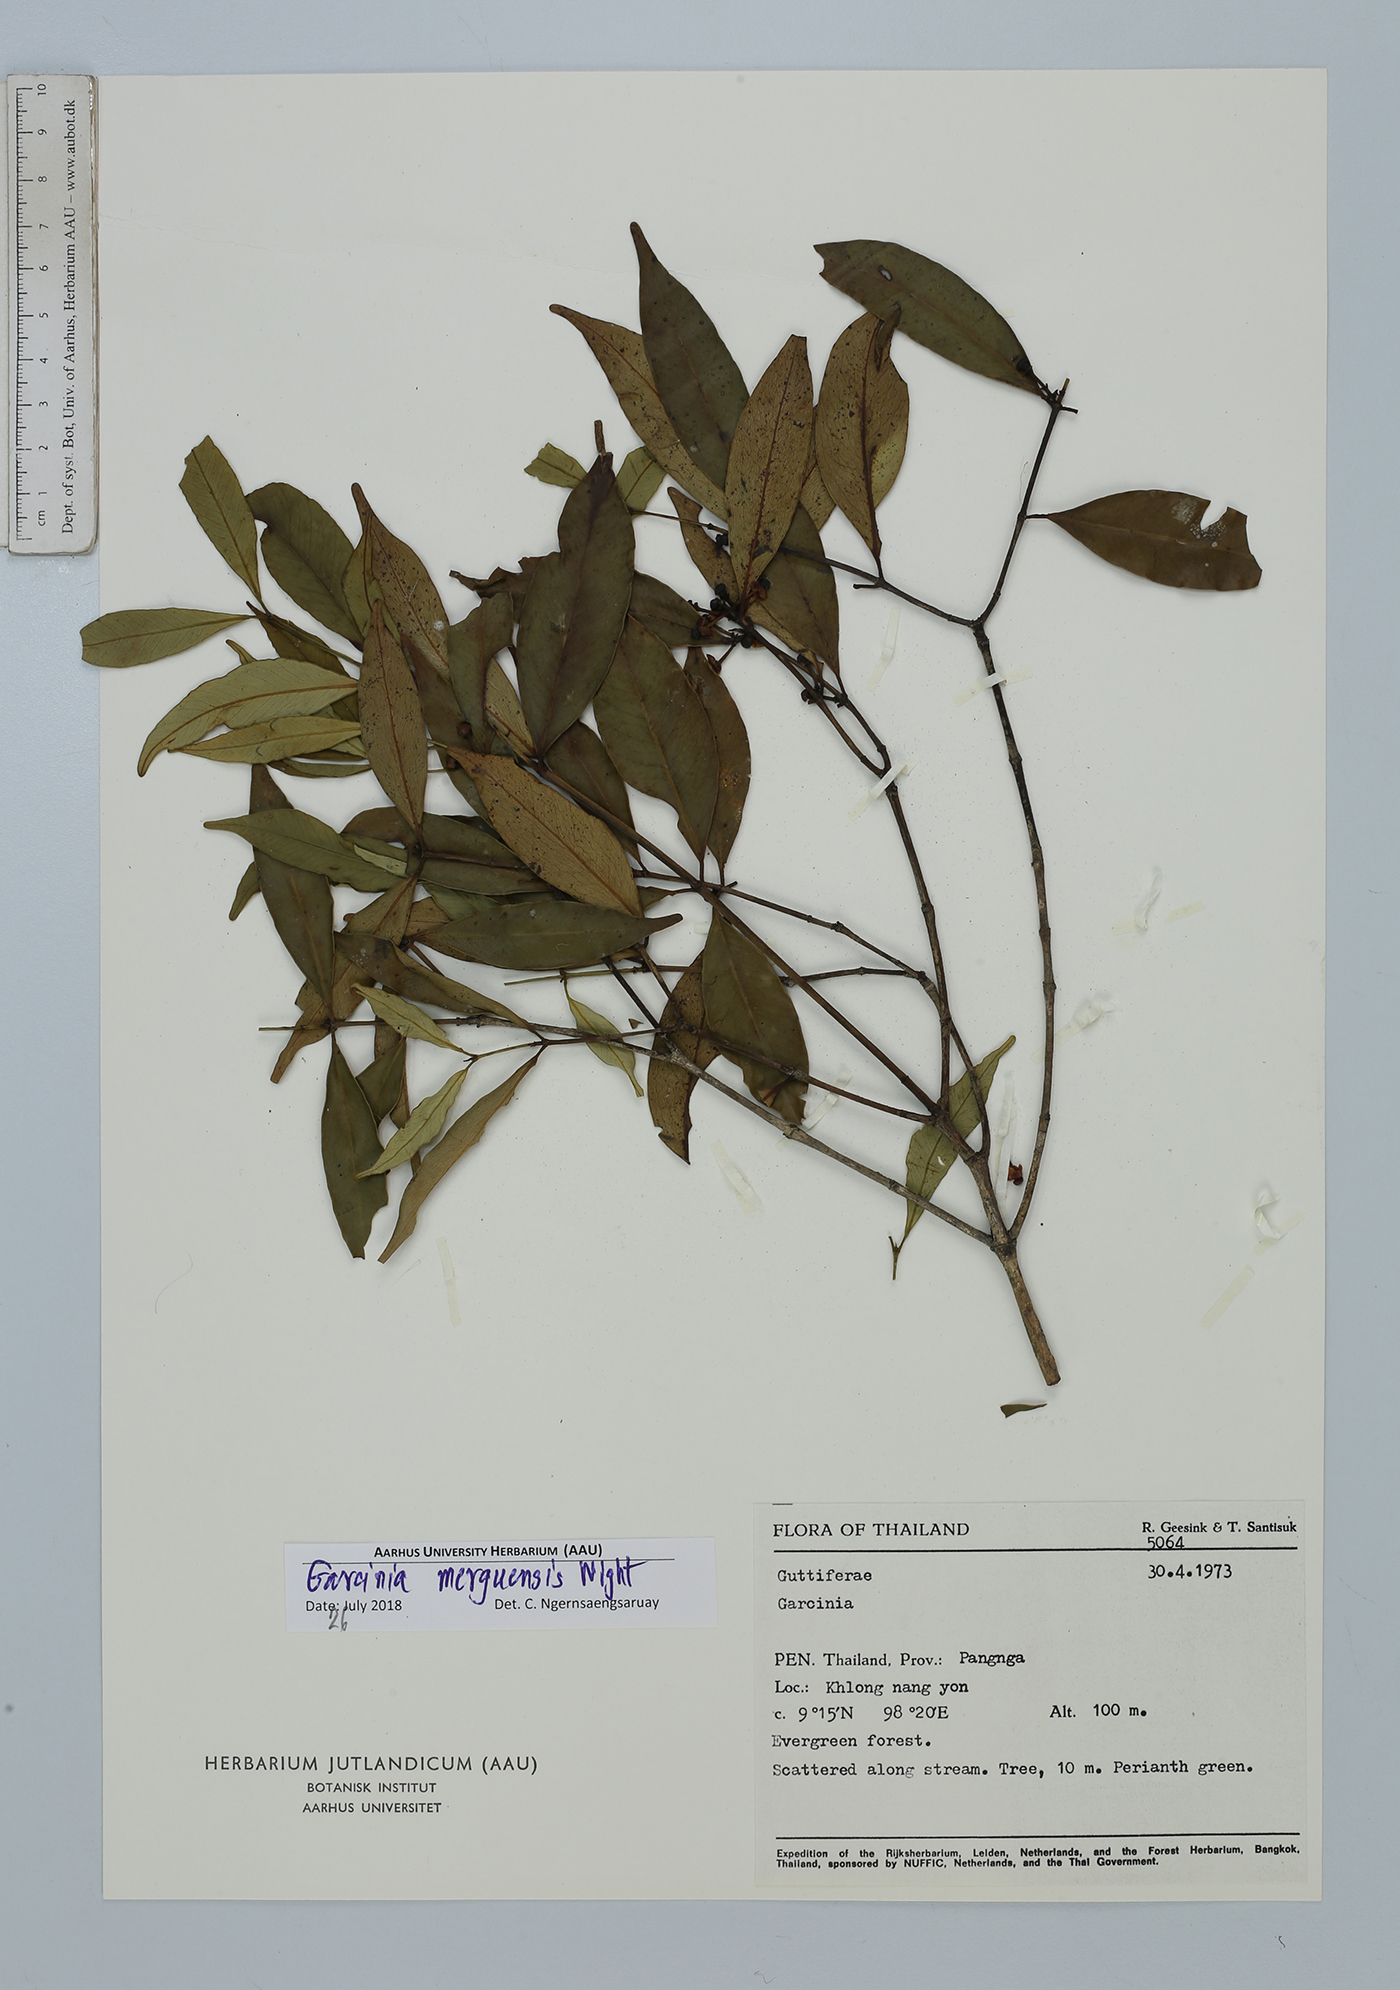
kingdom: Plantae
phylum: Tracheophyta
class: Magnoliopsida
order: Malpighiales
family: Clusiaceae
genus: Garcinia
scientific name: Garcinia merguensis
